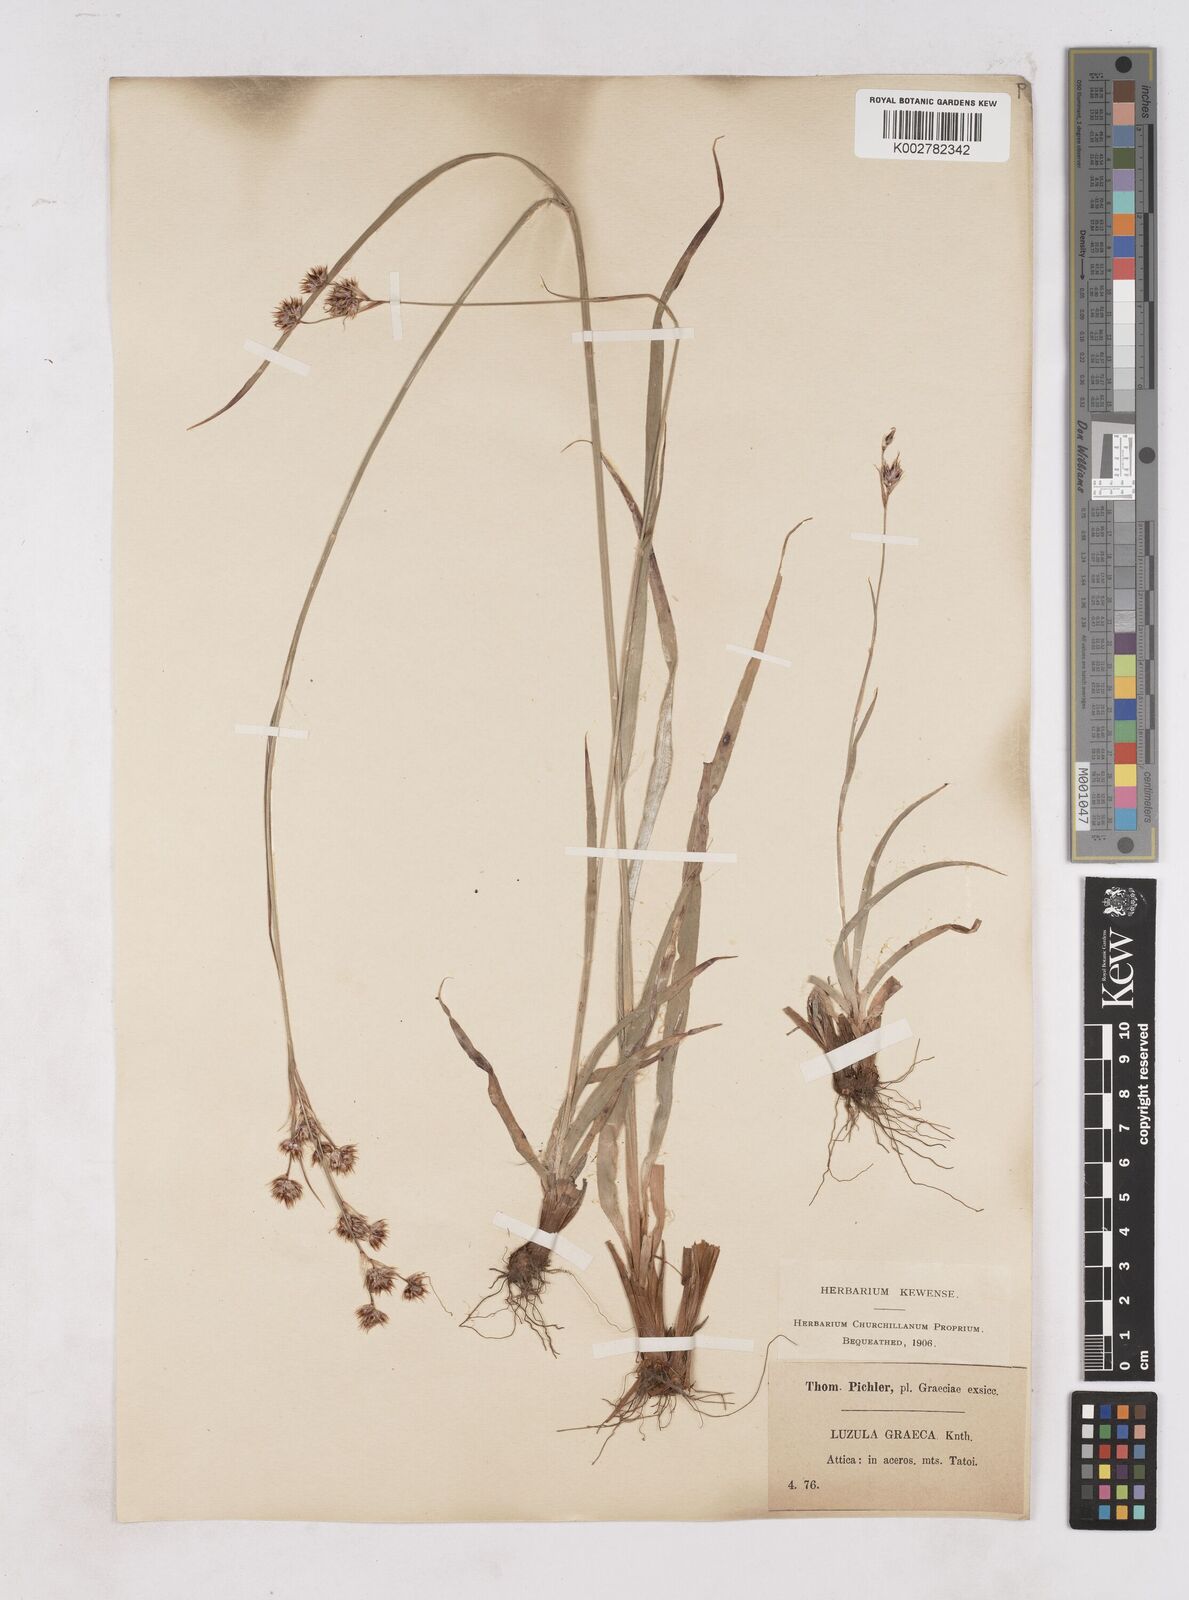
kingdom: Plantae
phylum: Tracheophyta
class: Liliopsida
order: Poales
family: Juncaceae
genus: Luzula
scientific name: Luzula nodulosa
